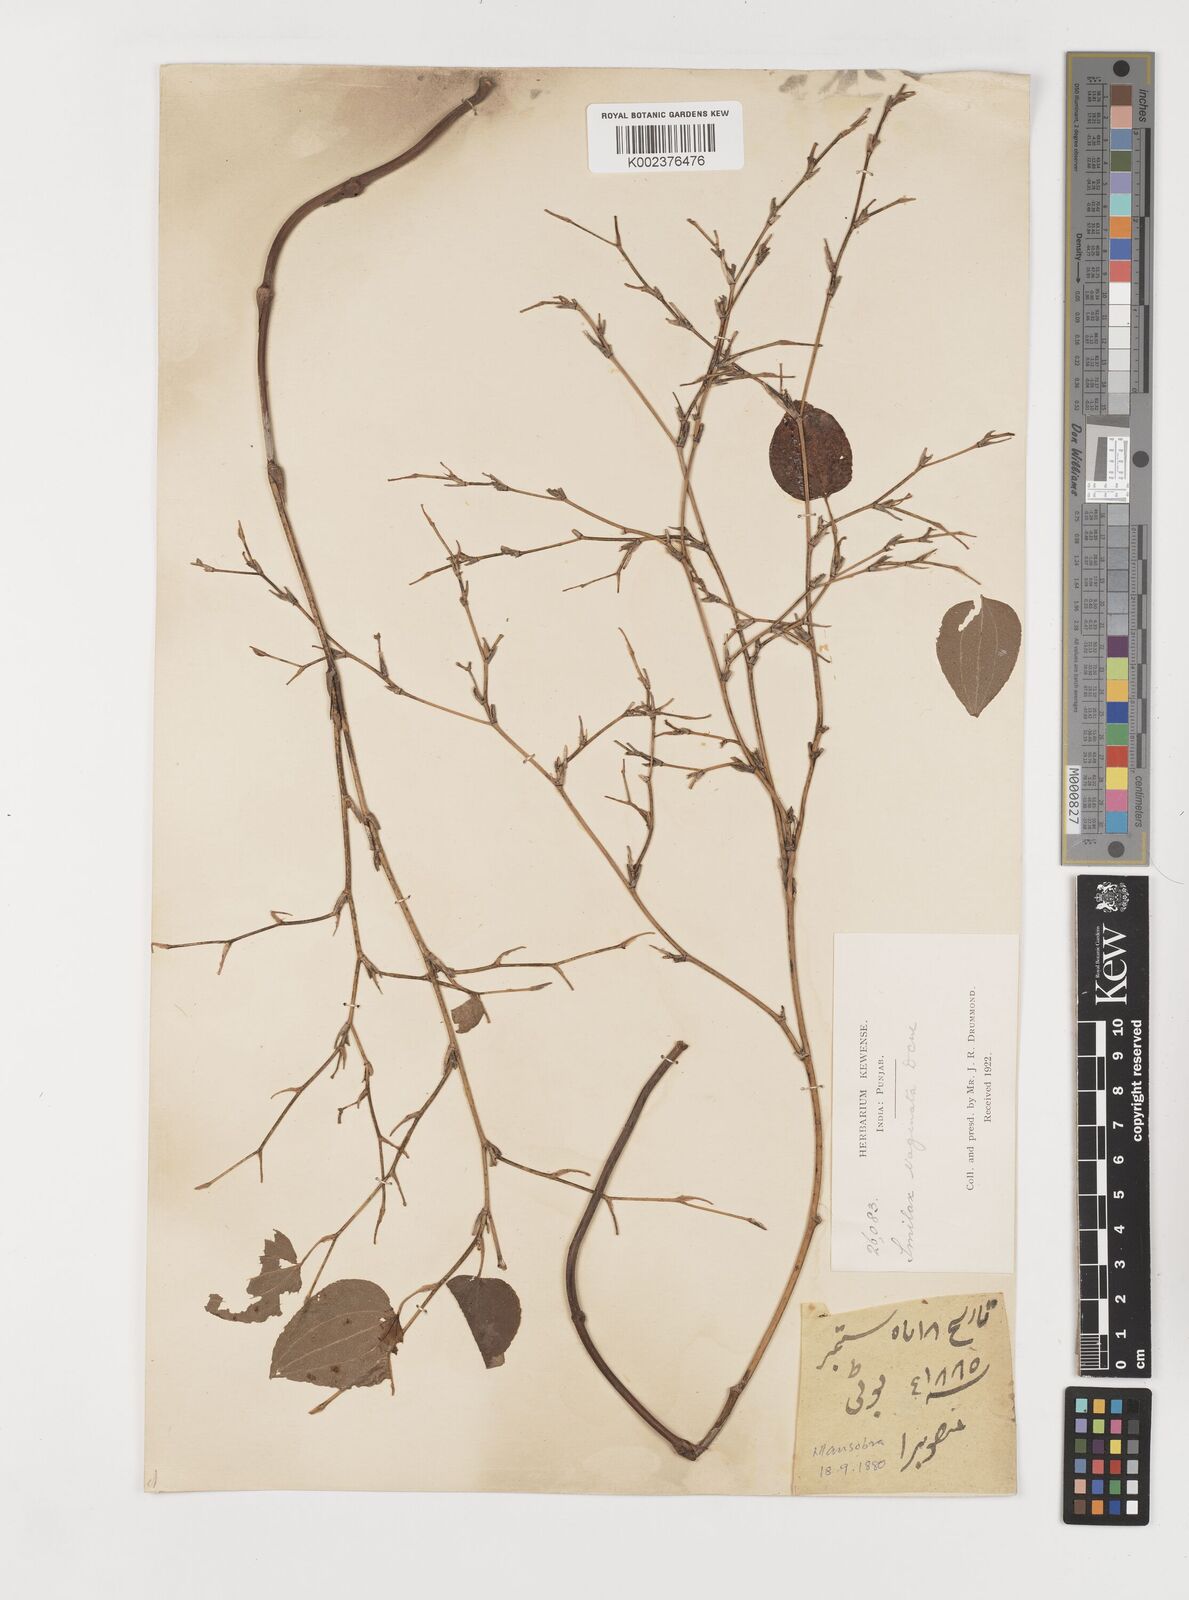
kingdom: Plantae
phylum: Tracheophyta
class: Liliopsida
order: Liliales
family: Smilacaceae
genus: Smilax
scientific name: Smilax vaginata
